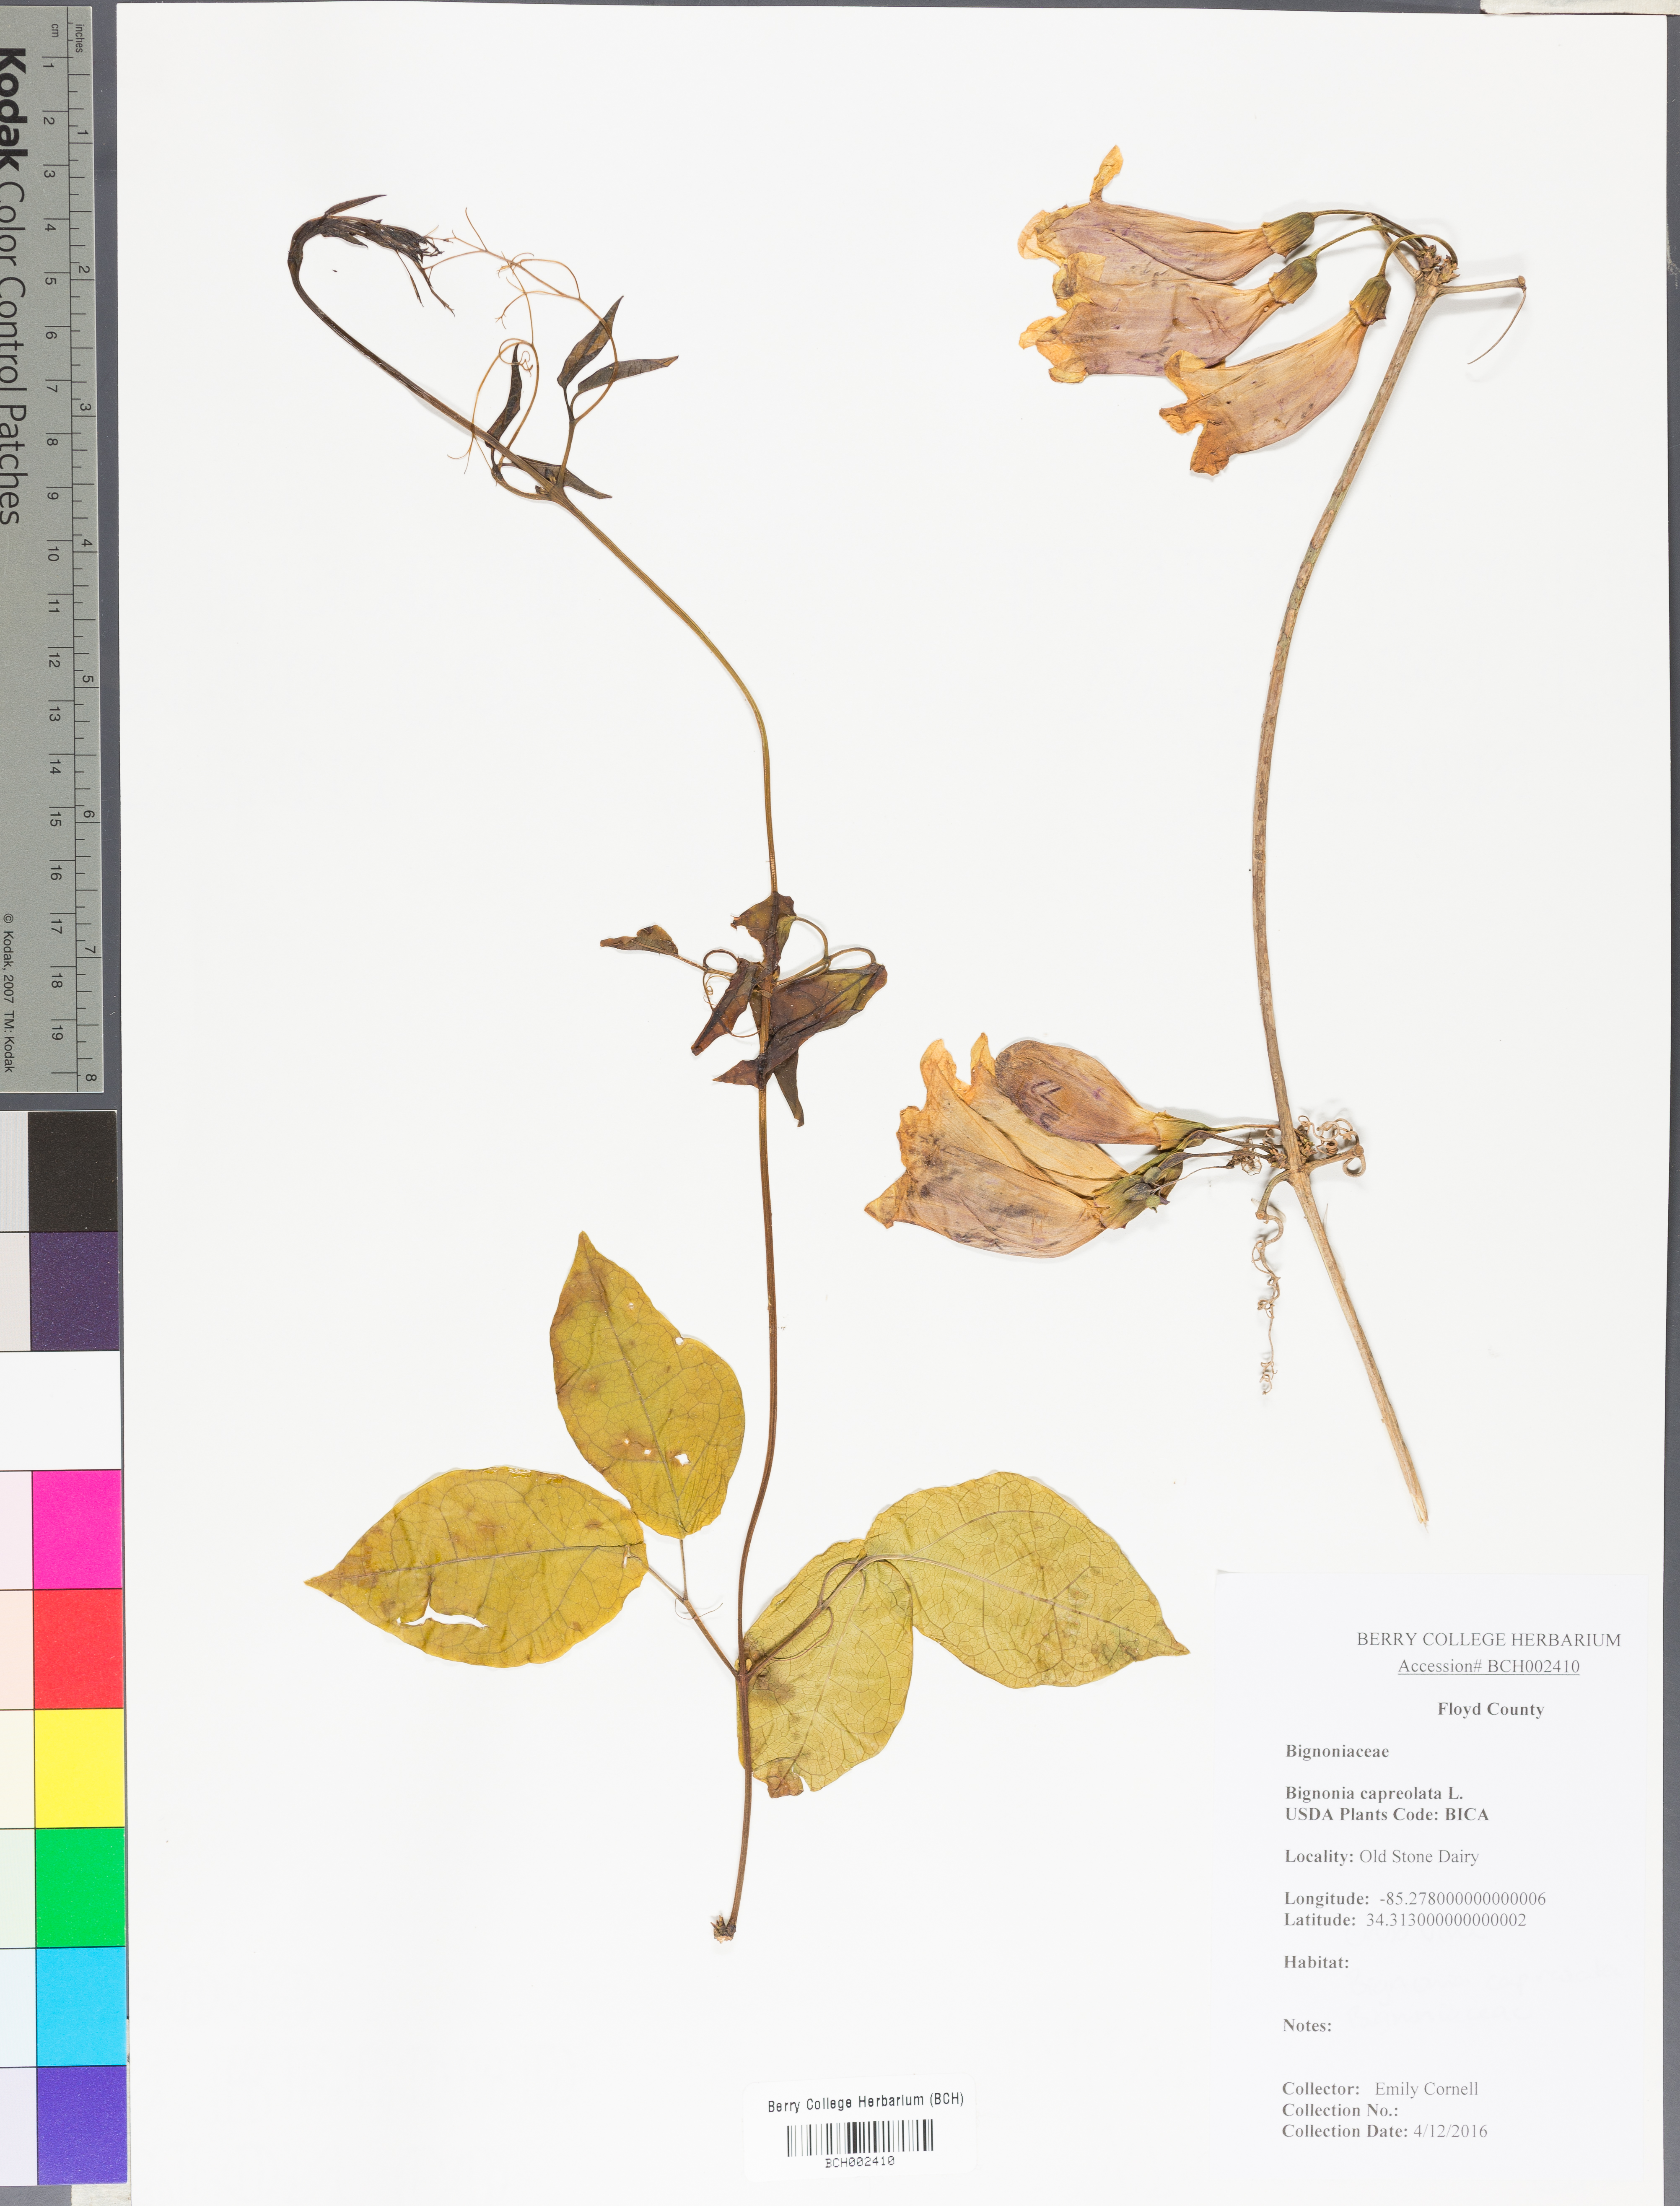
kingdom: Plantae
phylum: Tracheophyta
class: Magnoliopsida
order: Lamiales
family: Bignoniaceae
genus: Bignonia
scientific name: Bignonia capreolata
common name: Crossvine
